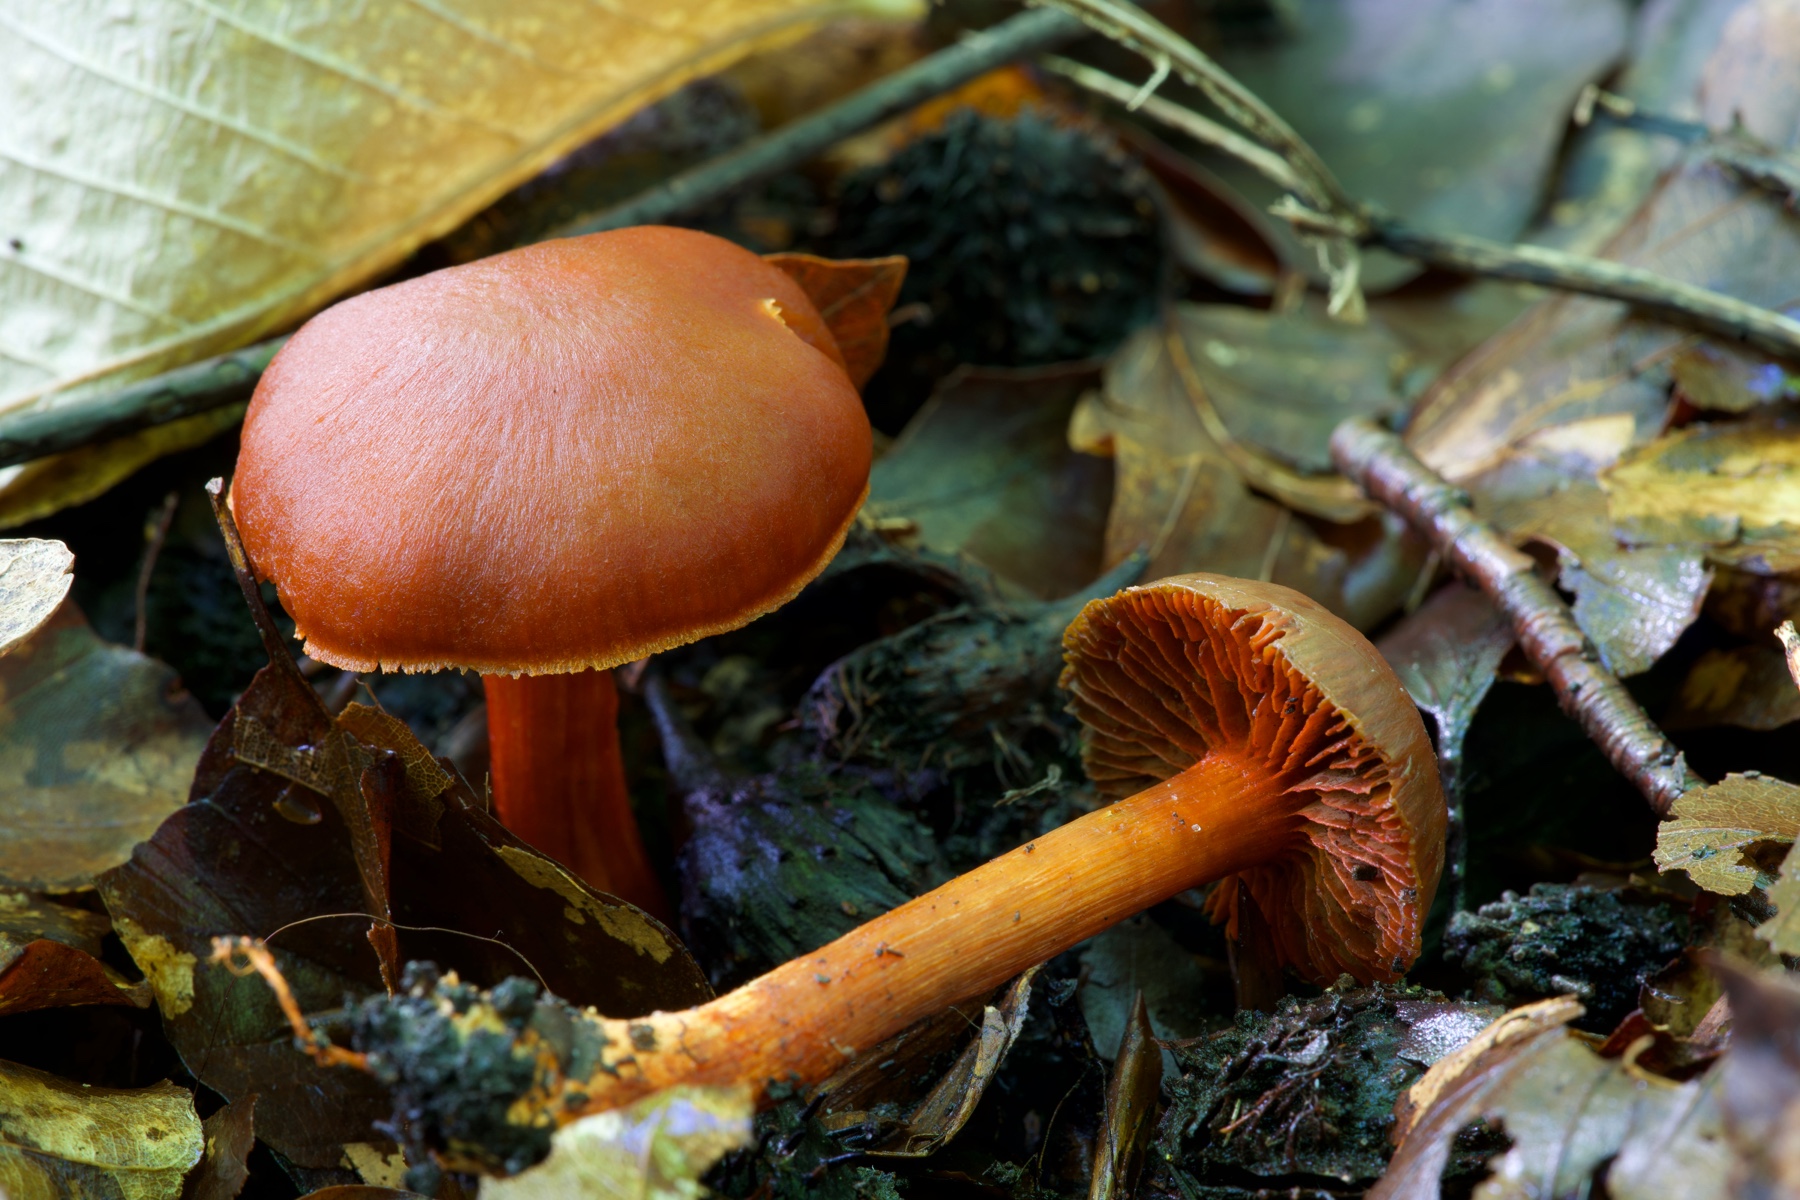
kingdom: Fungi
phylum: Basidiomycota
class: Agaricomycetes
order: Agaricales
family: Cortinariaceae
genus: Cortinarius
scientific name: Cortinarius cinnabarinus
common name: cinnober-slørhat
